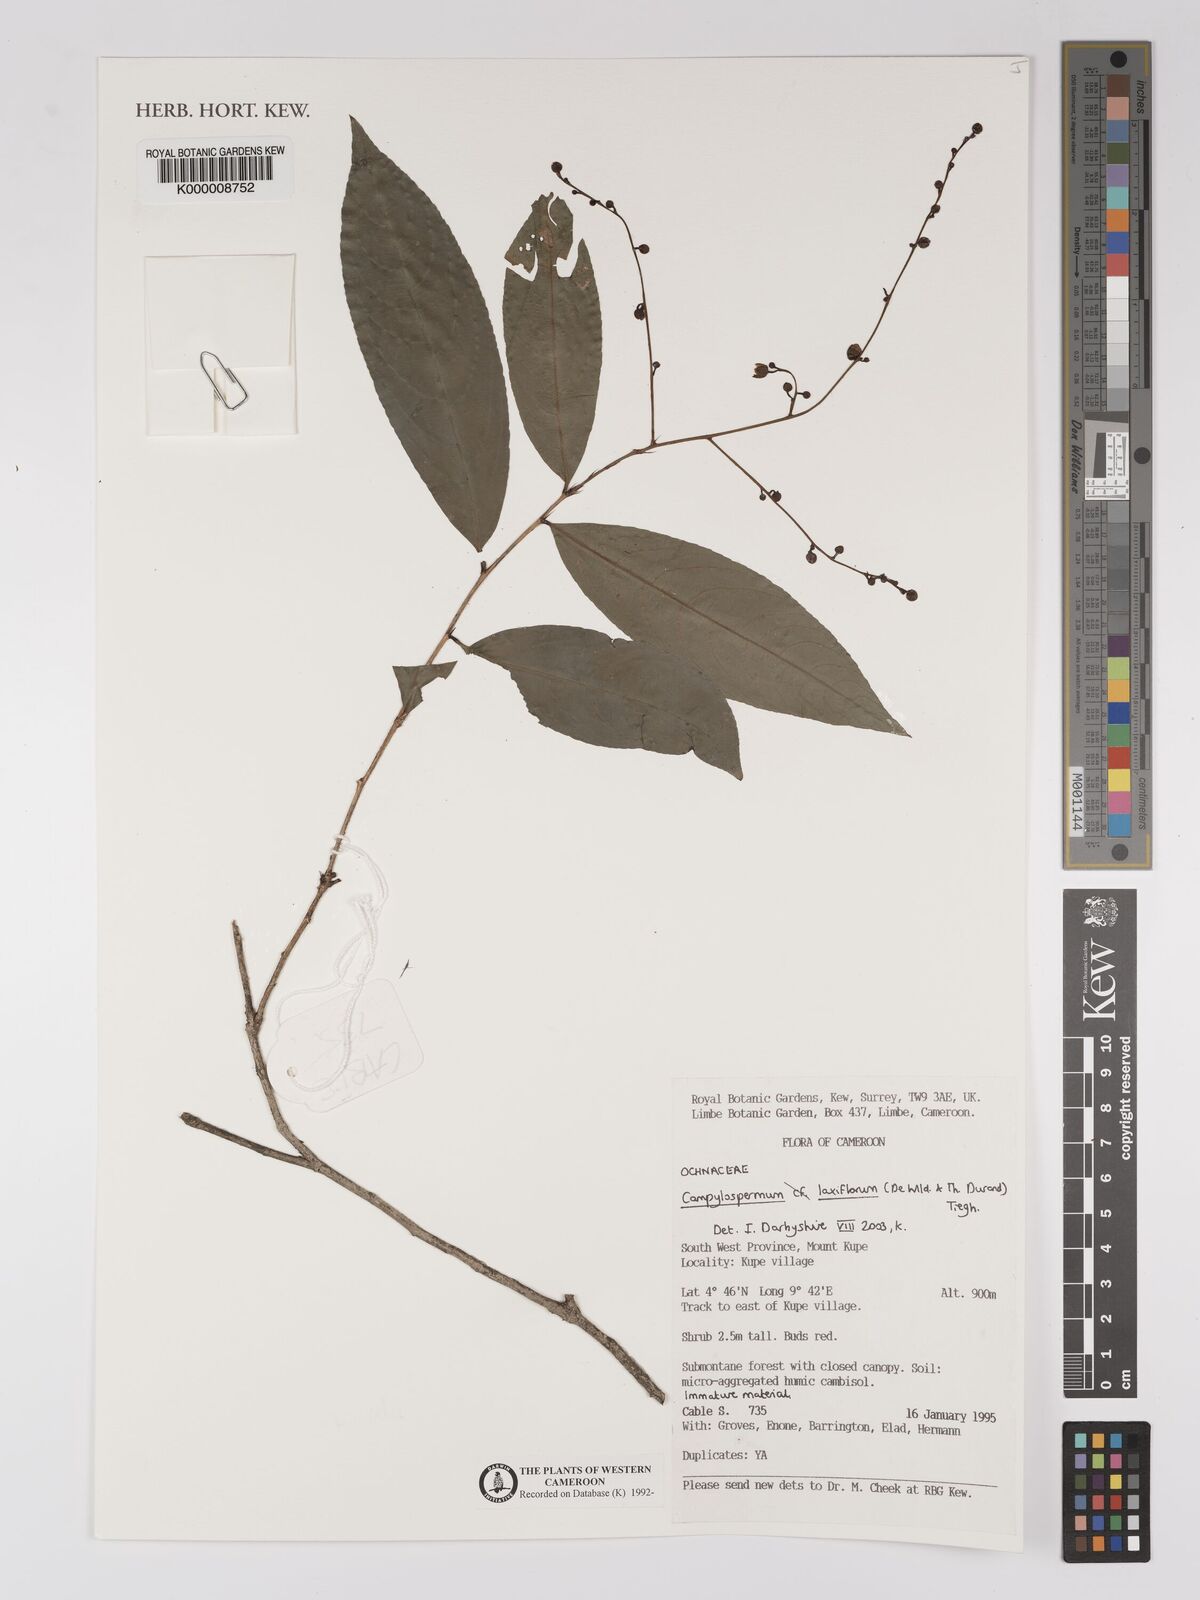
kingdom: Plantae
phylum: Tracheophyta
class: Magnoliopsida
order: Malpighiales
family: Ochnaceae
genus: Campylospermum
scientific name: Campylospermum laxiflorum
